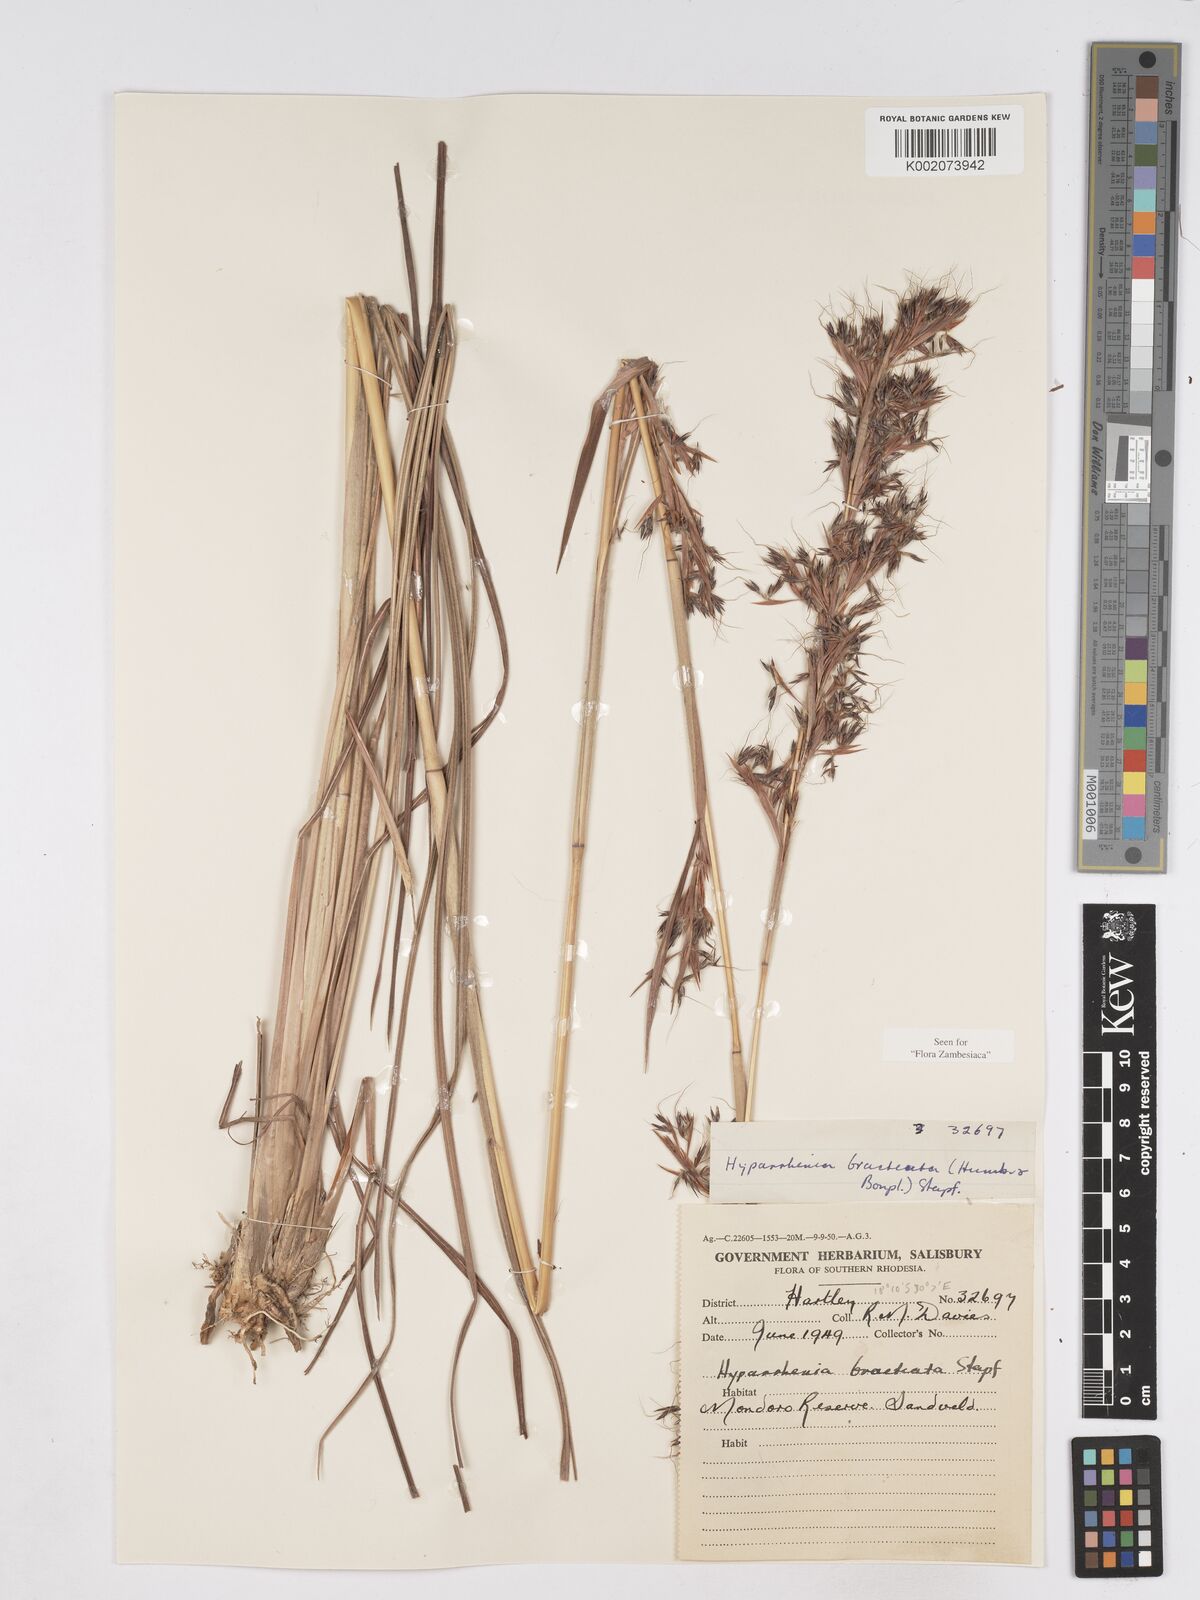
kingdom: Plantae
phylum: Tracheophyta
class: Liliopsida
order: Poales
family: Poaceae
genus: Hyparrhenia
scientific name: Hyparrhenia bracteata
